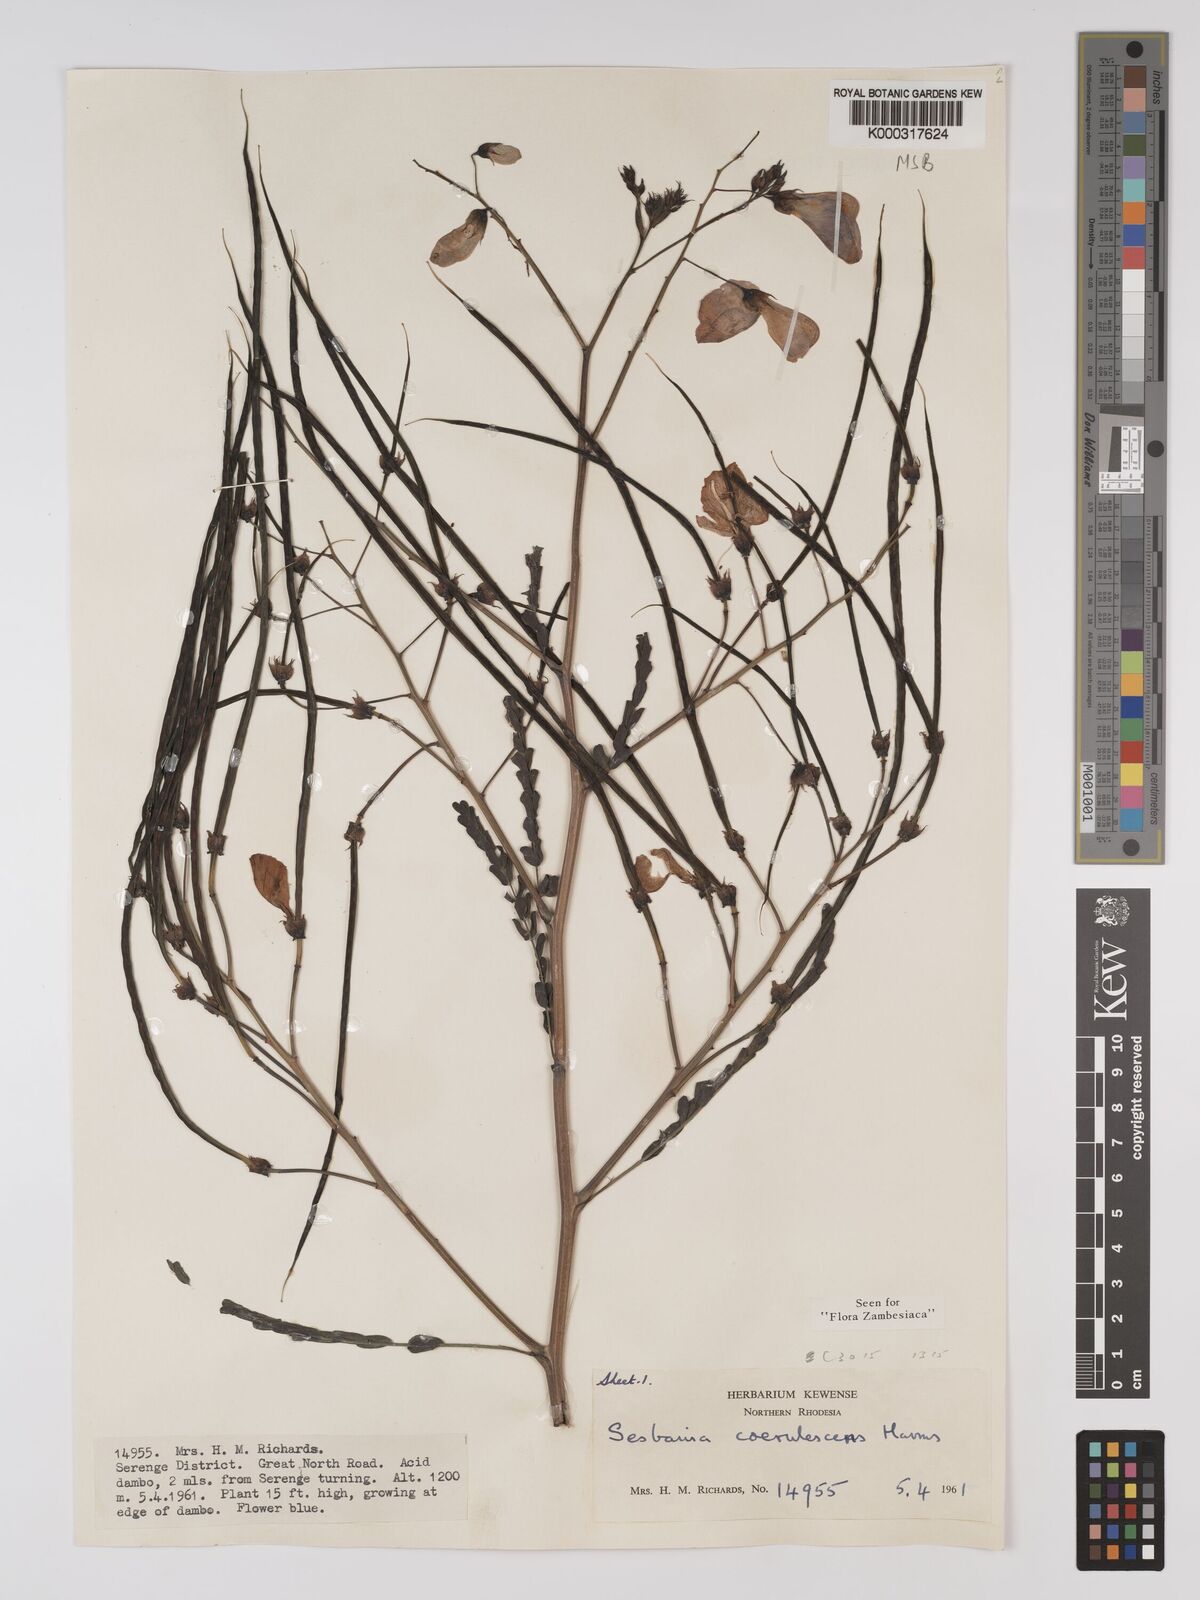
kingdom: Plantae
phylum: Tracheophyta
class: Magnoliopsida
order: Fabales
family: Fabaceae
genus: Sesbania
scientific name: Sesbania coerulescens
